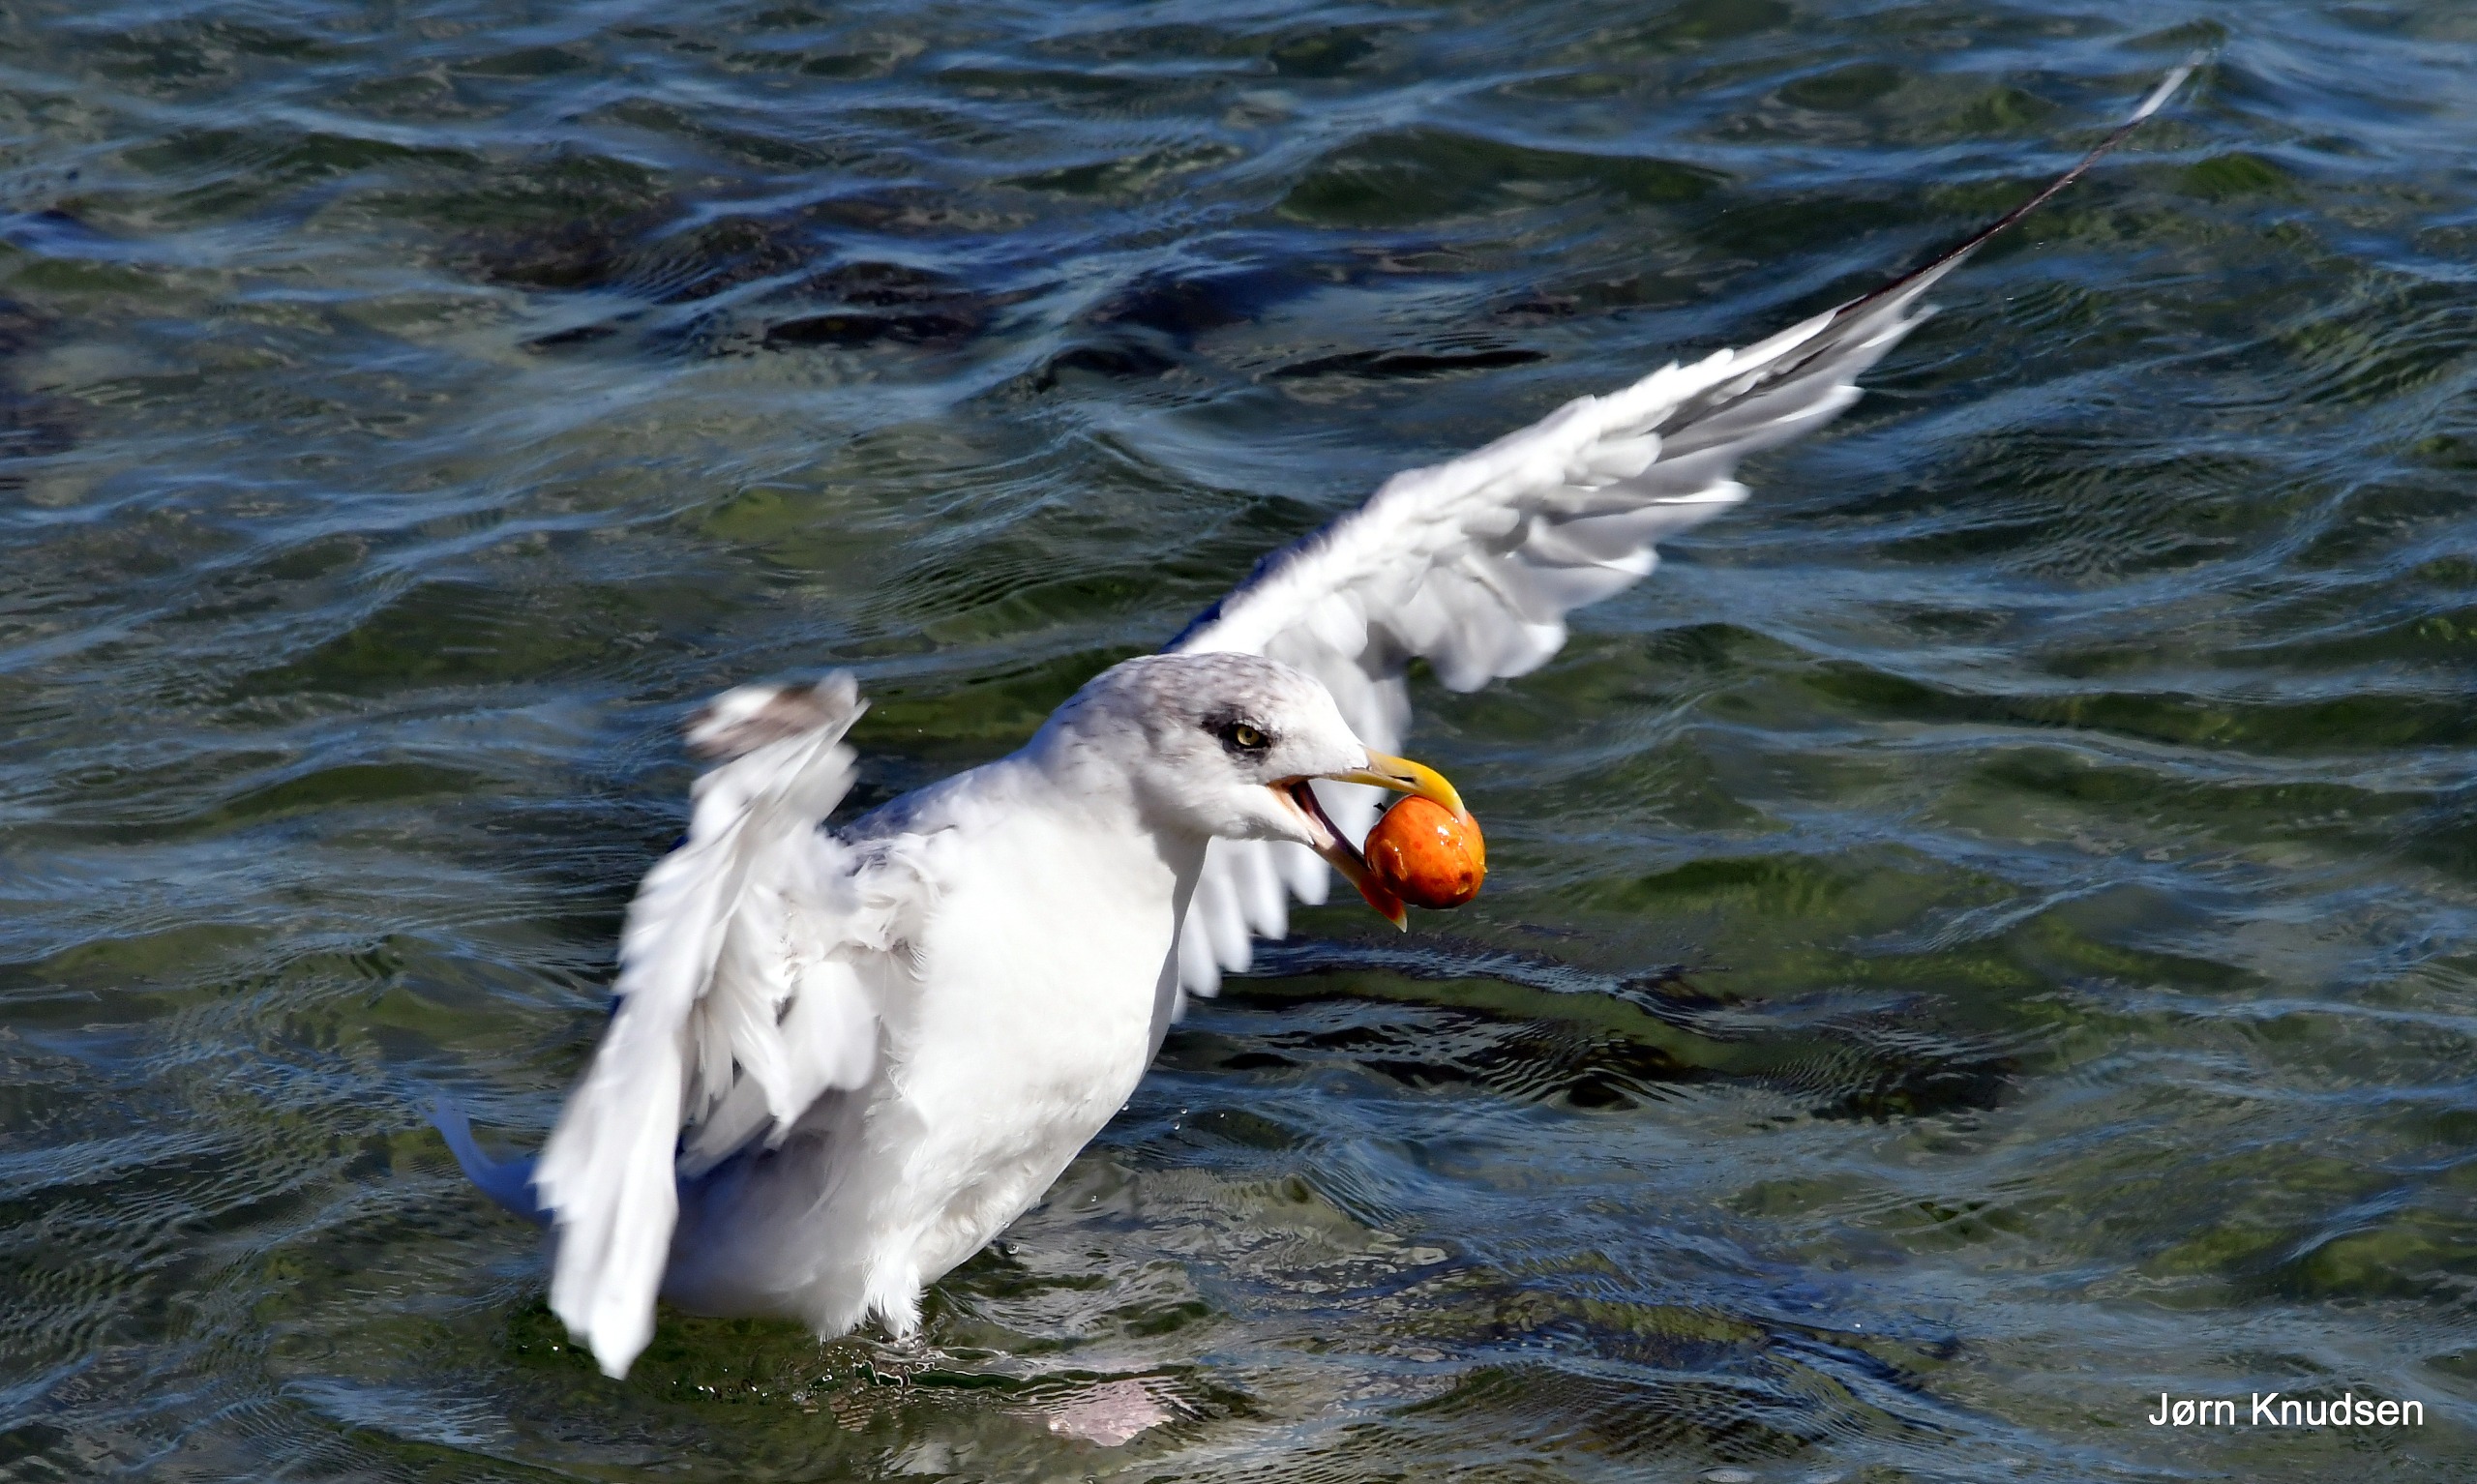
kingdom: Animalia
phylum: Chordata
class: Aves
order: Charadriiformes
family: Laridae
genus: Larus
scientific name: Larus argentatus
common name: Sølvmåge
